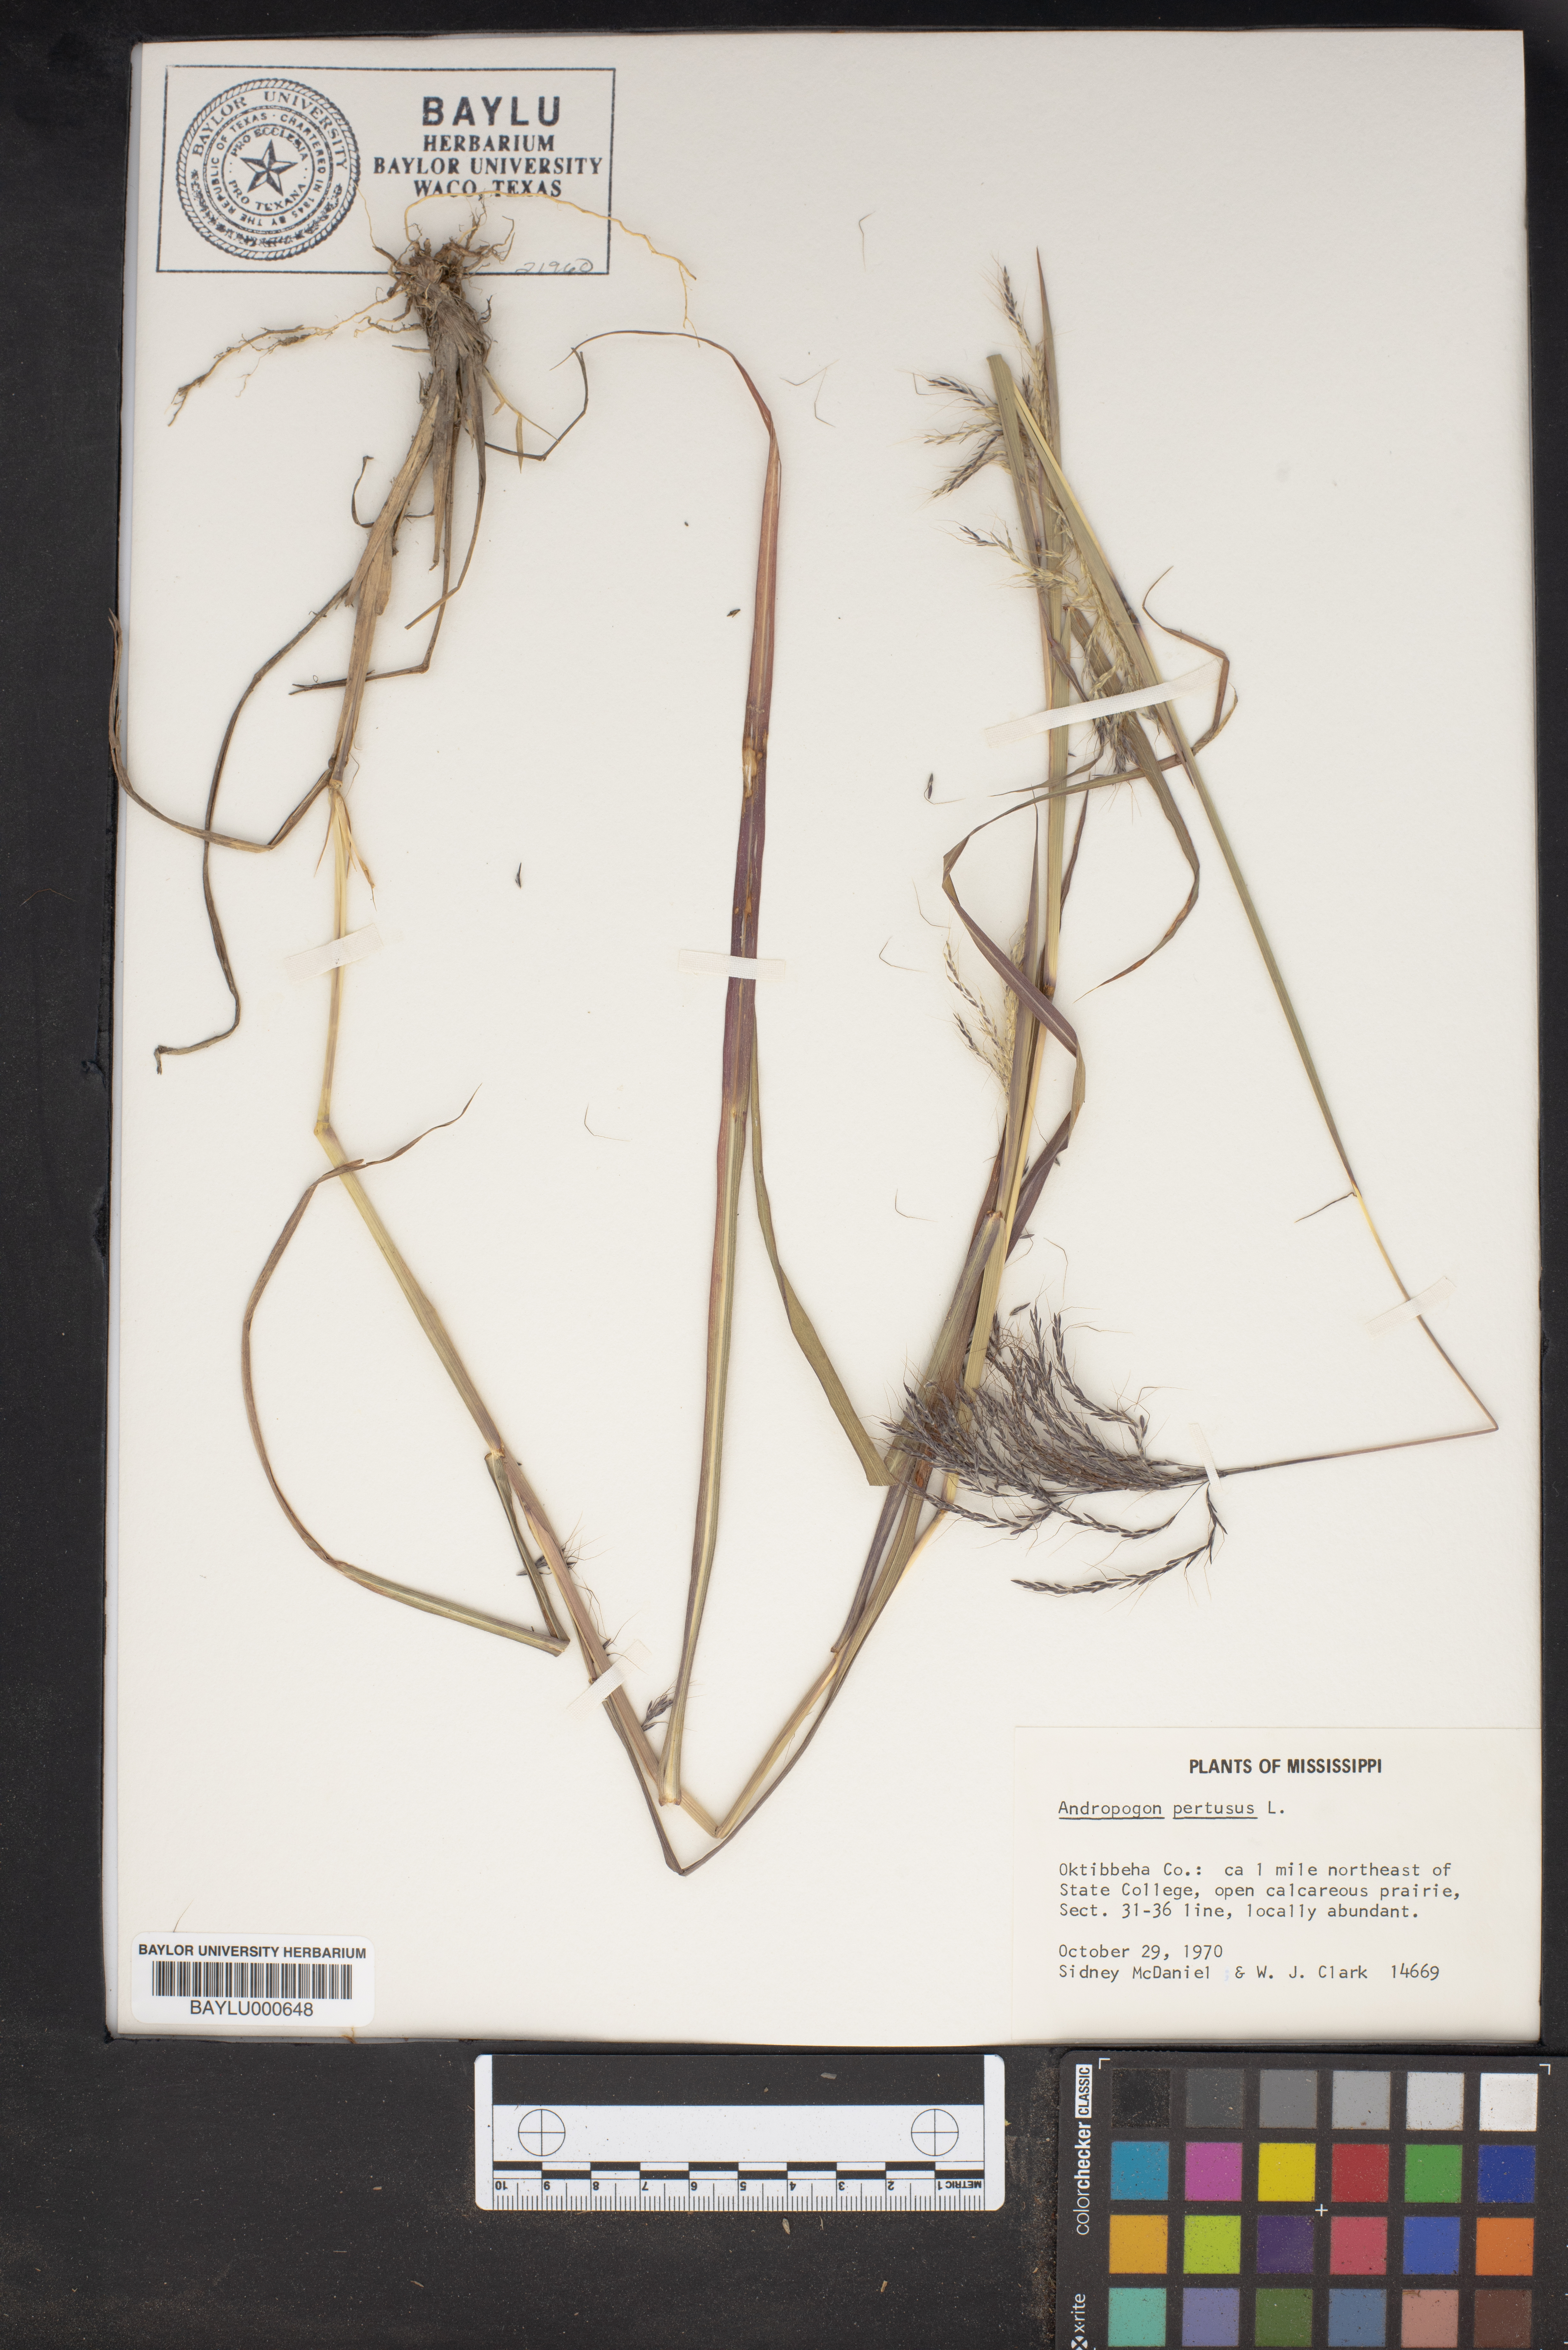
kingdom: Plantae
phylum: Tracheophyta
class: Liliopsida
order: Poales
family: Poaceae
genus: Bothriochloa
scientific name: Bothriochloa pertusa
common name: Pitted beardgrass
